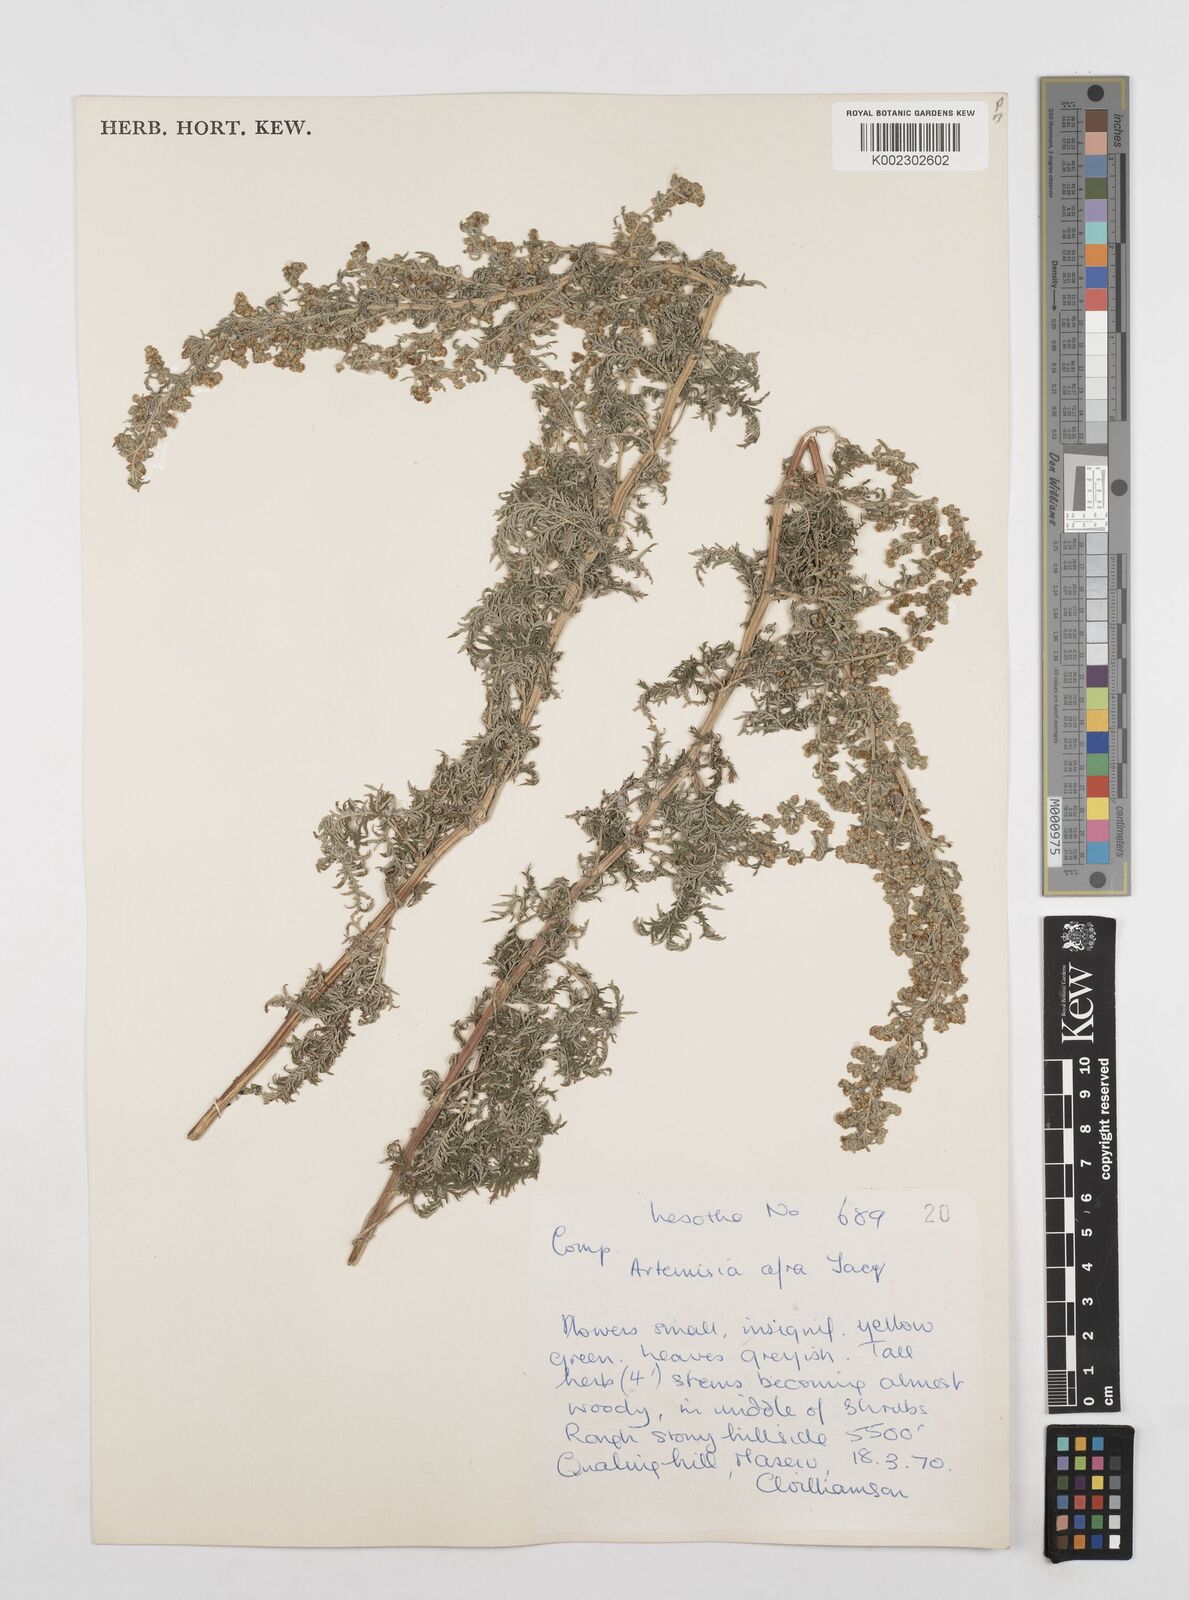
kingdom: Plantae
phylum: Tracheophyta
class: Magnoliopsida
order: Asterales
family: Asteraceae
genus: Artemisia
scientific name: Artemisia afra
